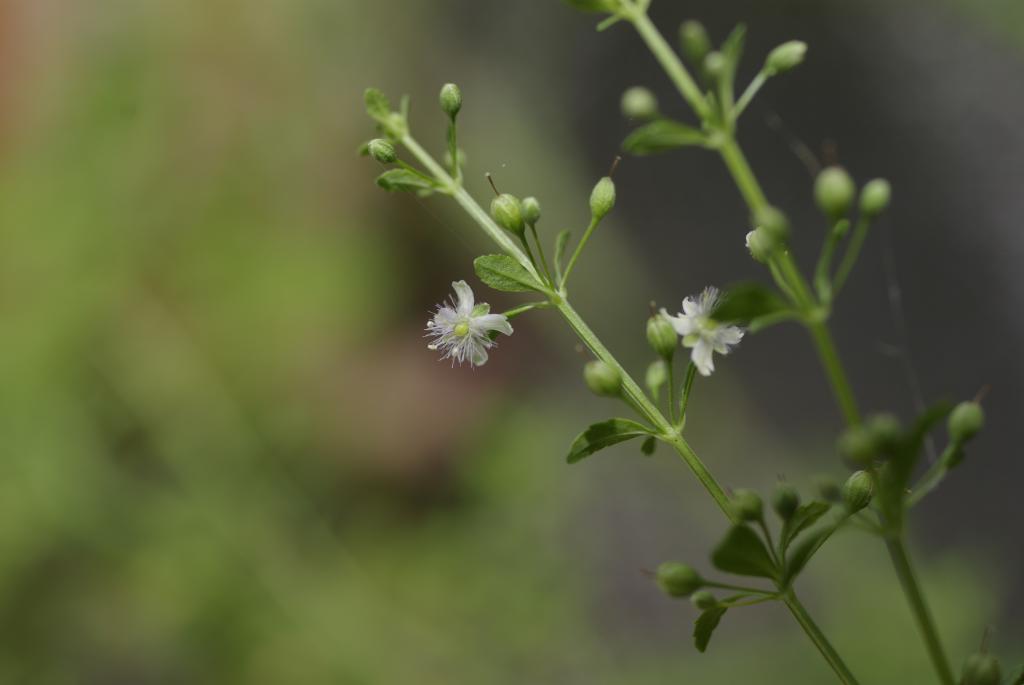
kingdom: Plantae
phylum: Tracheophyta
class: Magnoliopsida
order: Lamiales
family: Plantaginaceae
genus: Scoparia
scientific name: Scoparia dulcis
